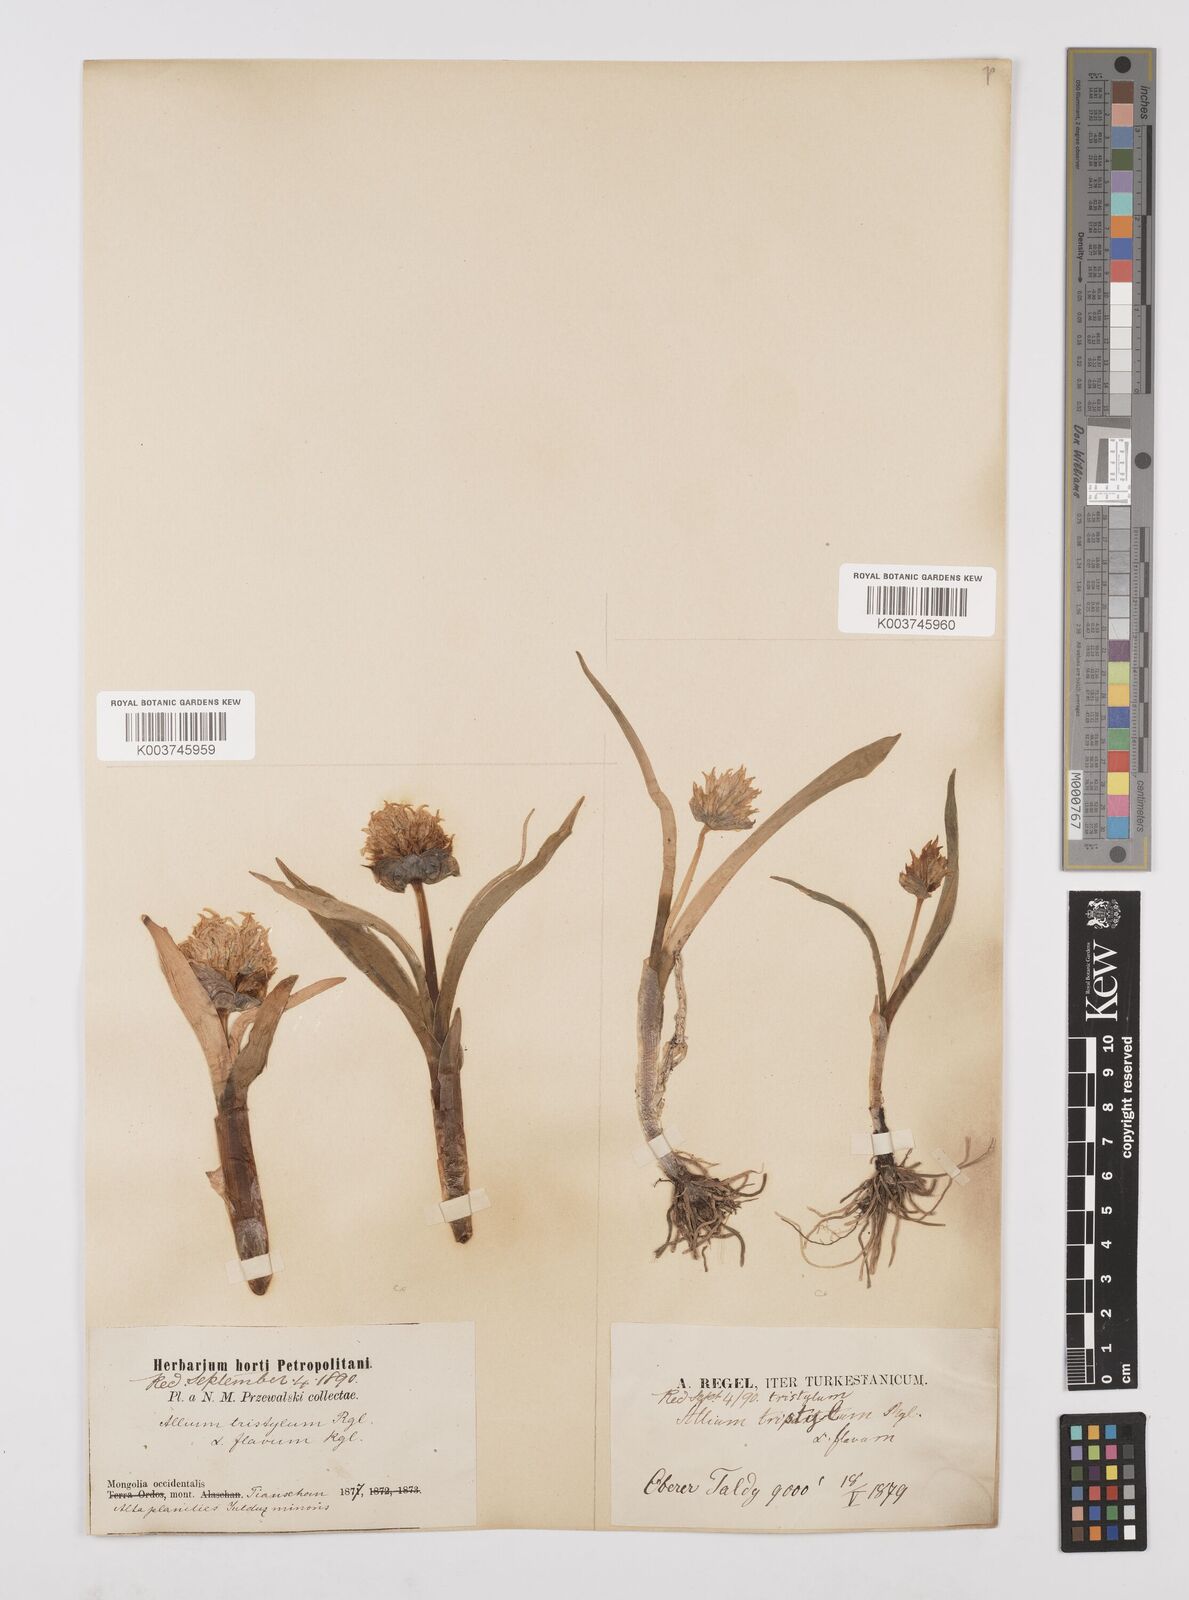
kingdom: Plantae
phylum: Tracheophyta
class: Liliopsida
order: Asparagales
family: Amaryllidaceae
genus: Allium
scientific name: Allium semenovii
